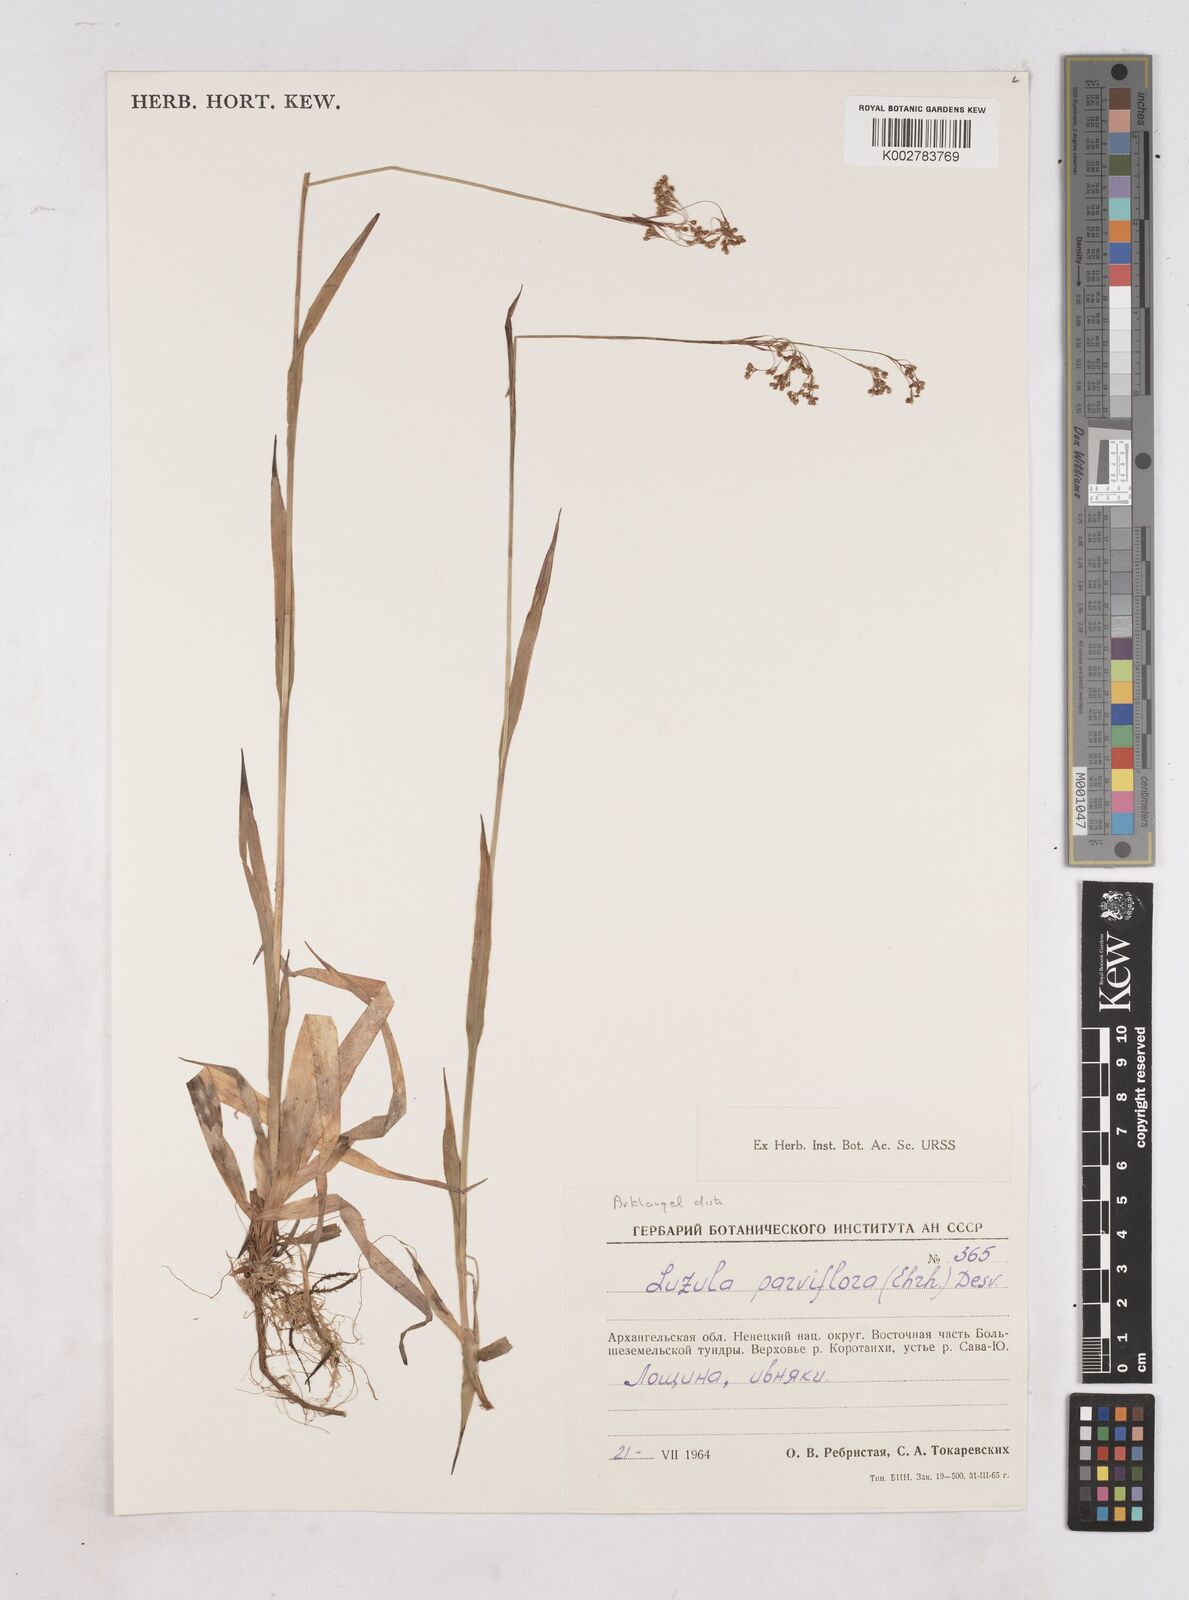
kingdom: Plantae
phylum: Tracheophyta
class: Liliopsida
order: Poales
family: Juncaceae
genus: Luzula
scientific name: Luzula parviflora
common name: Millet woodrush
